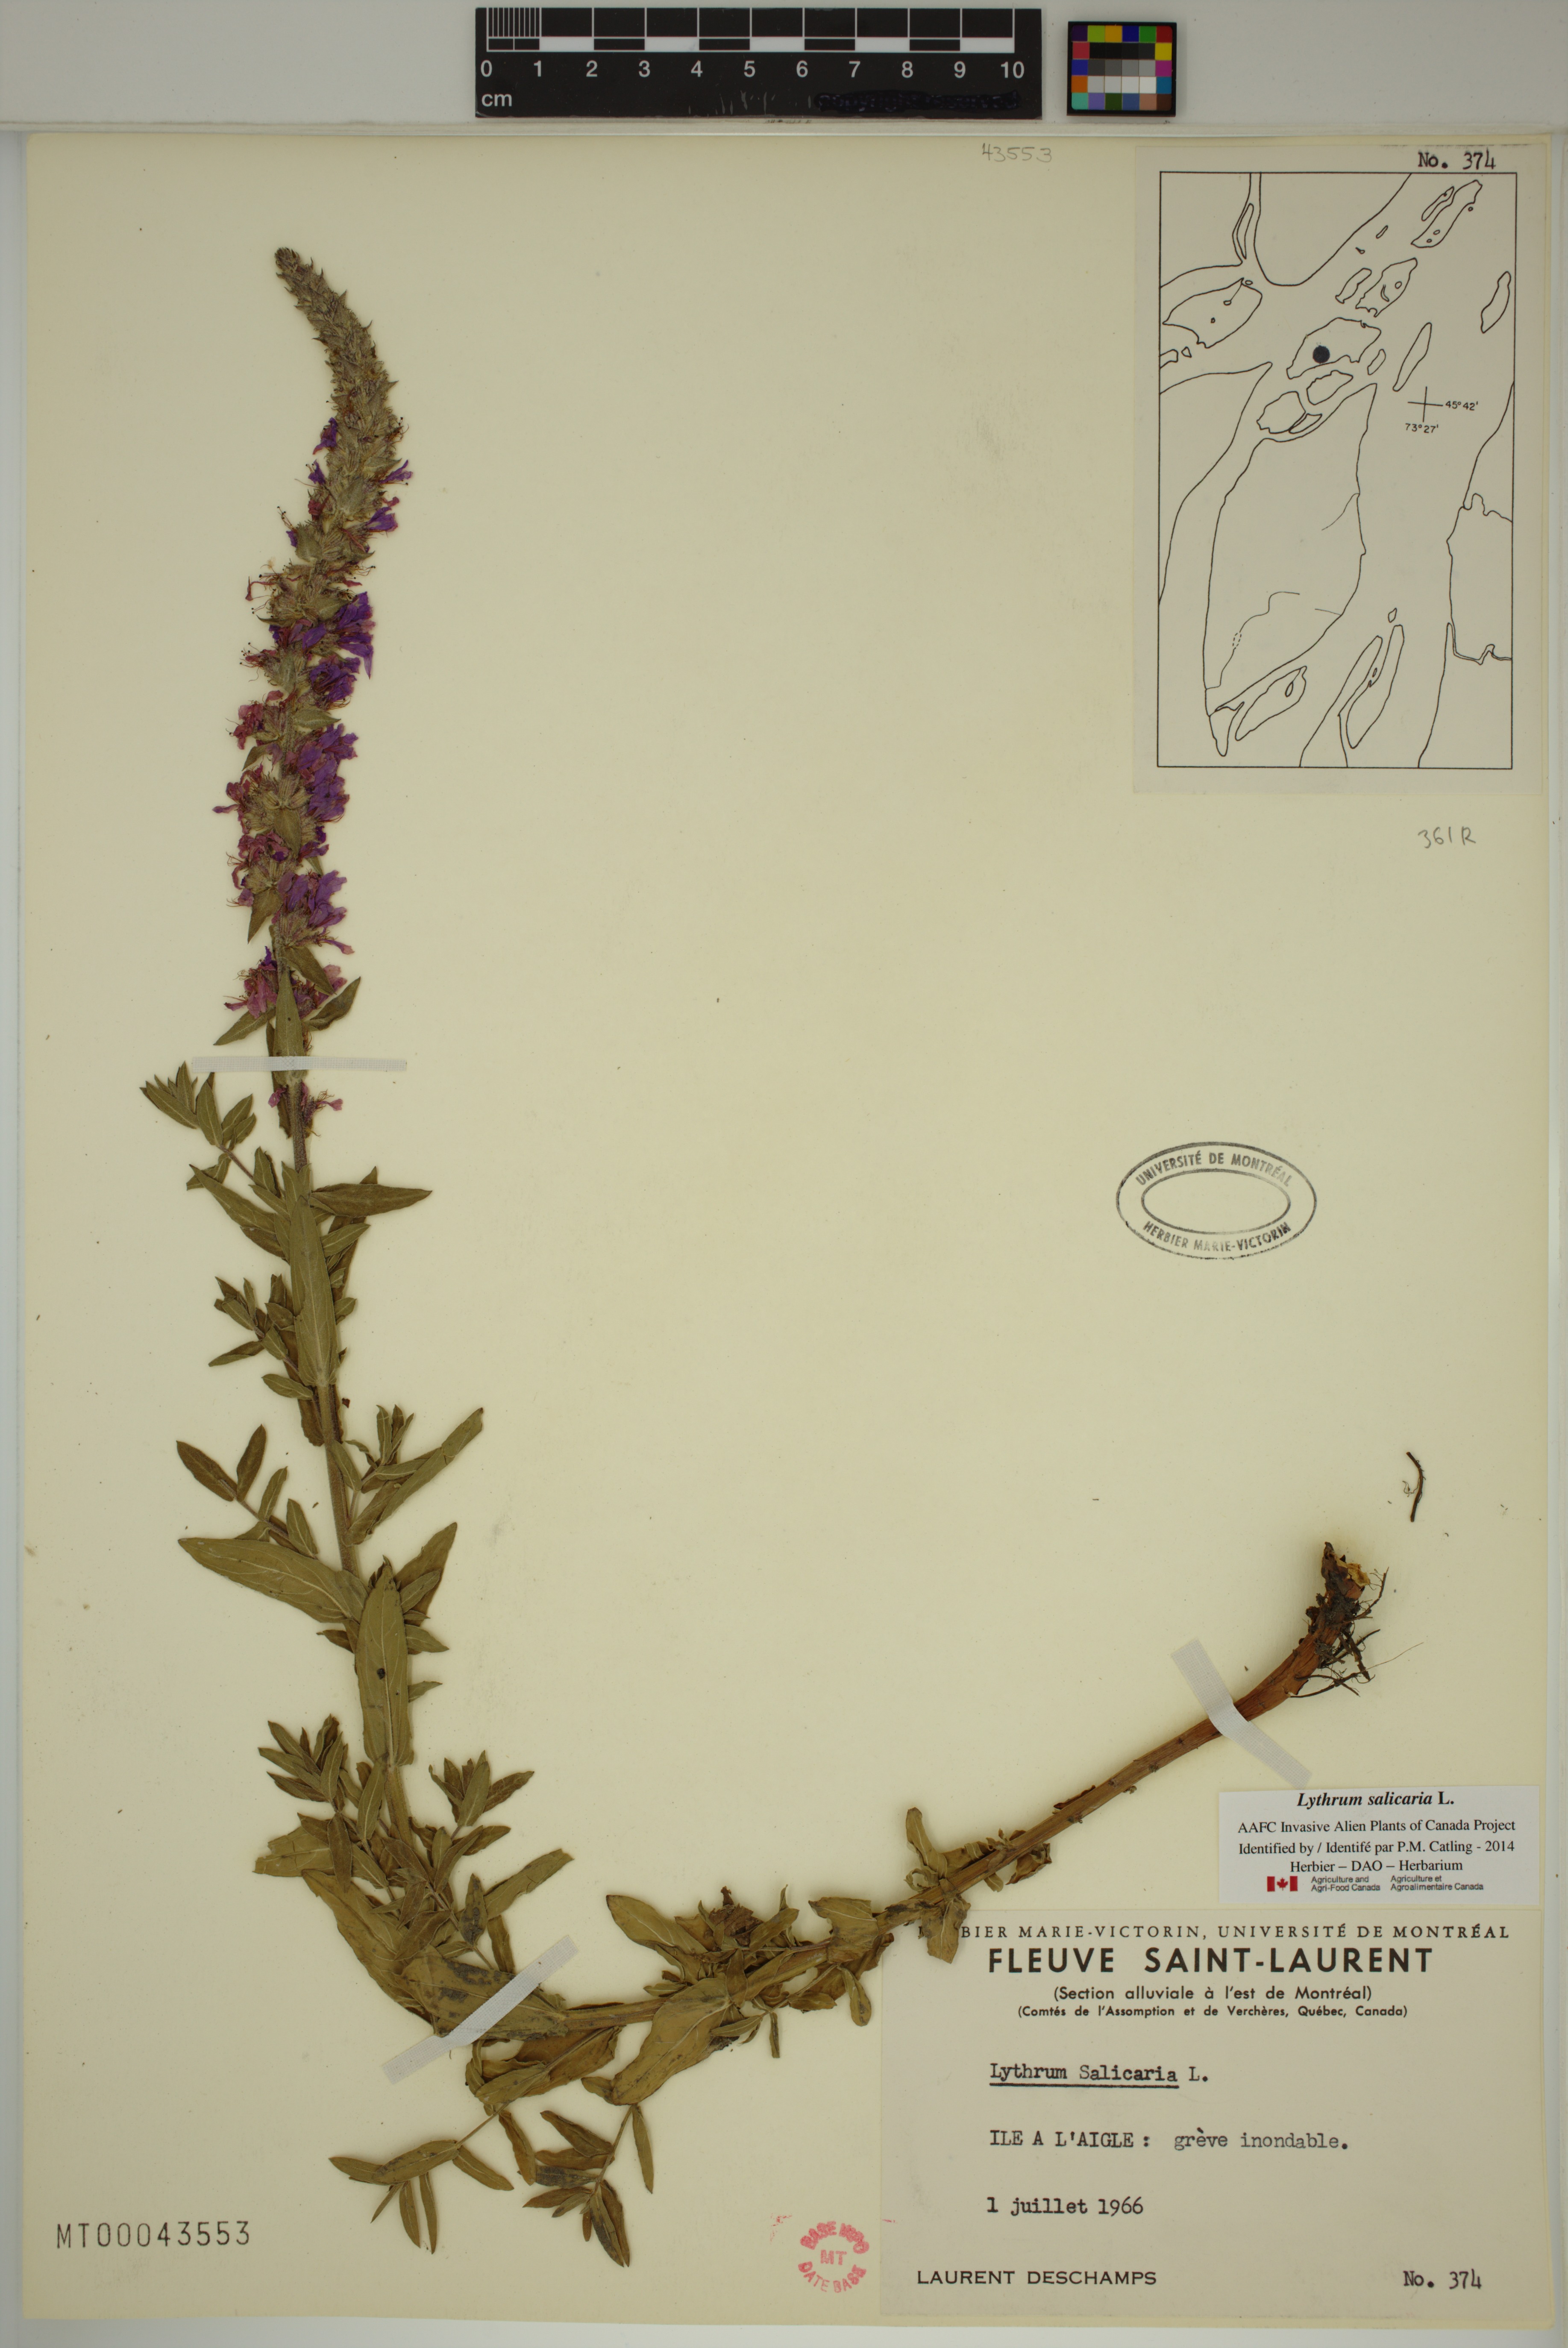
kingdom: Plantae
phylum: Tracheophyta
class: Magnoliopsida
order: Myrtales
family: Lythraceae
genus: Lythrum
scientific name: Lythrum salicaria
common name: Purple loosestrife
